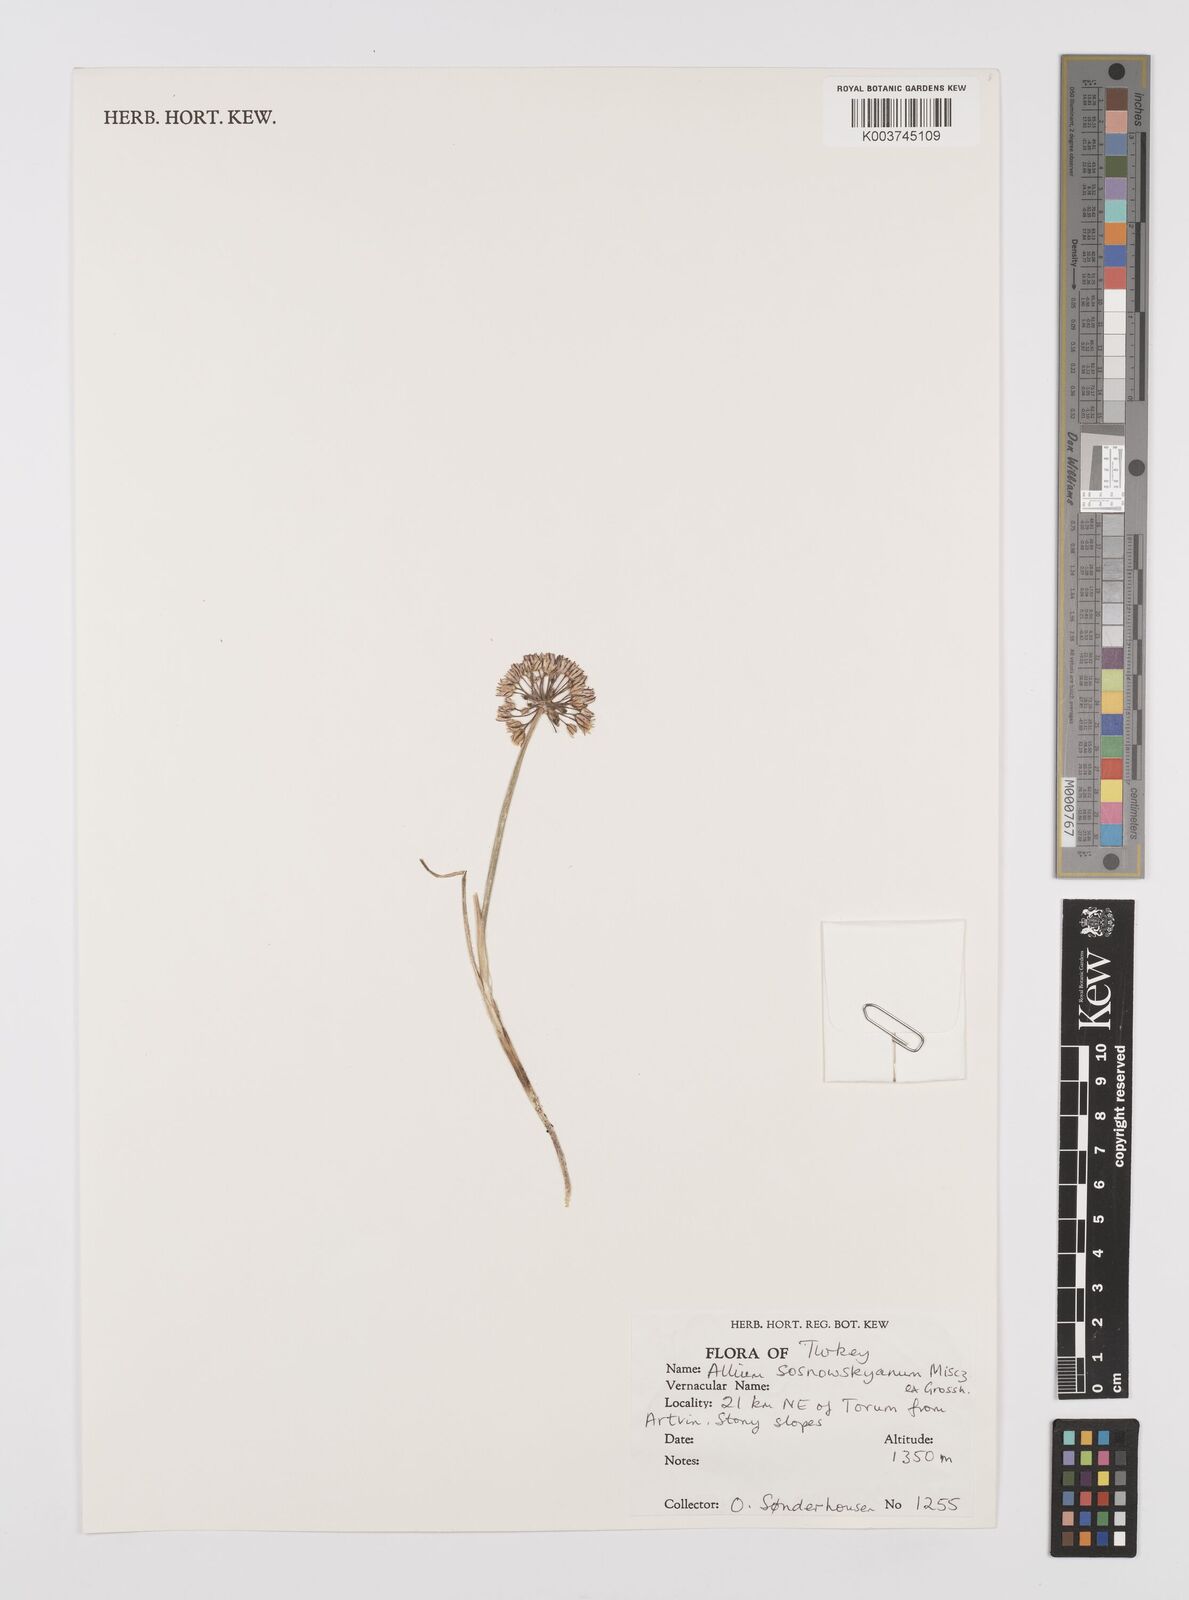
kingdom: Plantae
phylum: Tracheophyta
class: Liliopsida
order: Asparagales
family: Amaryllidaceae
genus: Allium
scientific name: Allium sosnovskyanum
